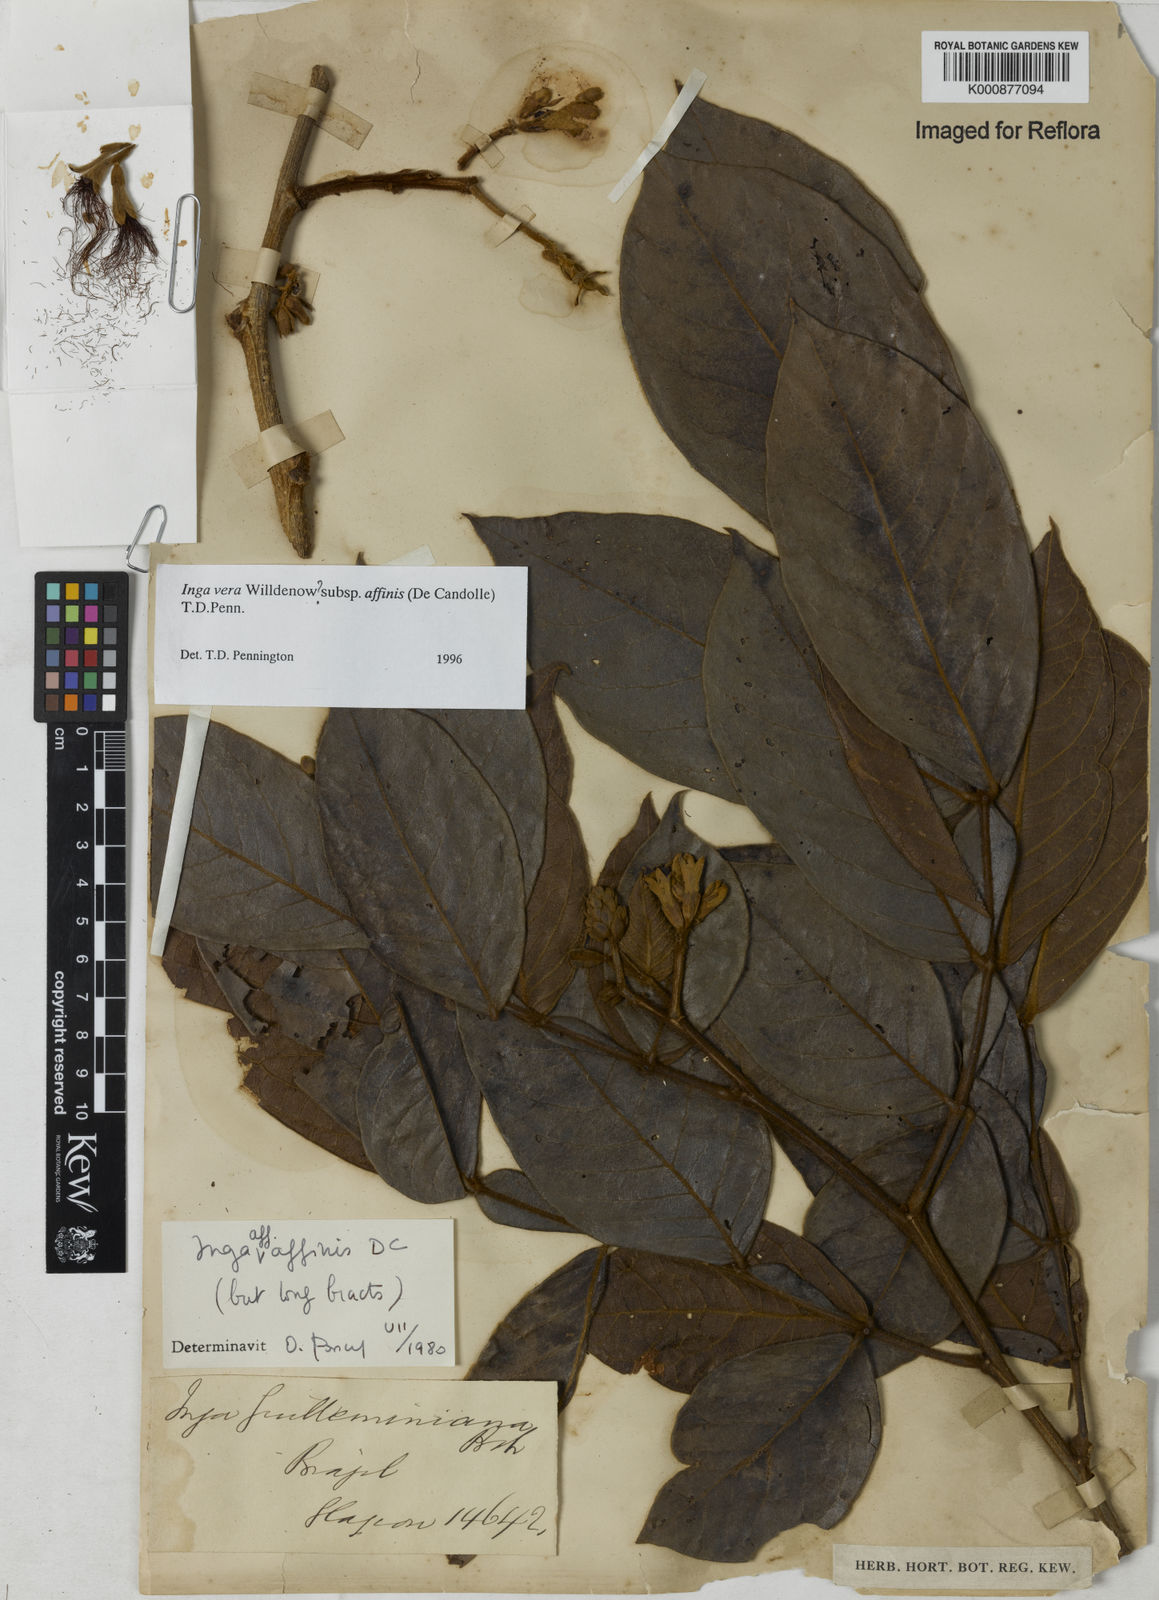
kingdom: Plantae
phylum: Tracheophyta
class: Magnoliopsida
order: Fabales
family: Fabaceae
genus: Inga
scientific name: Inga affinis
